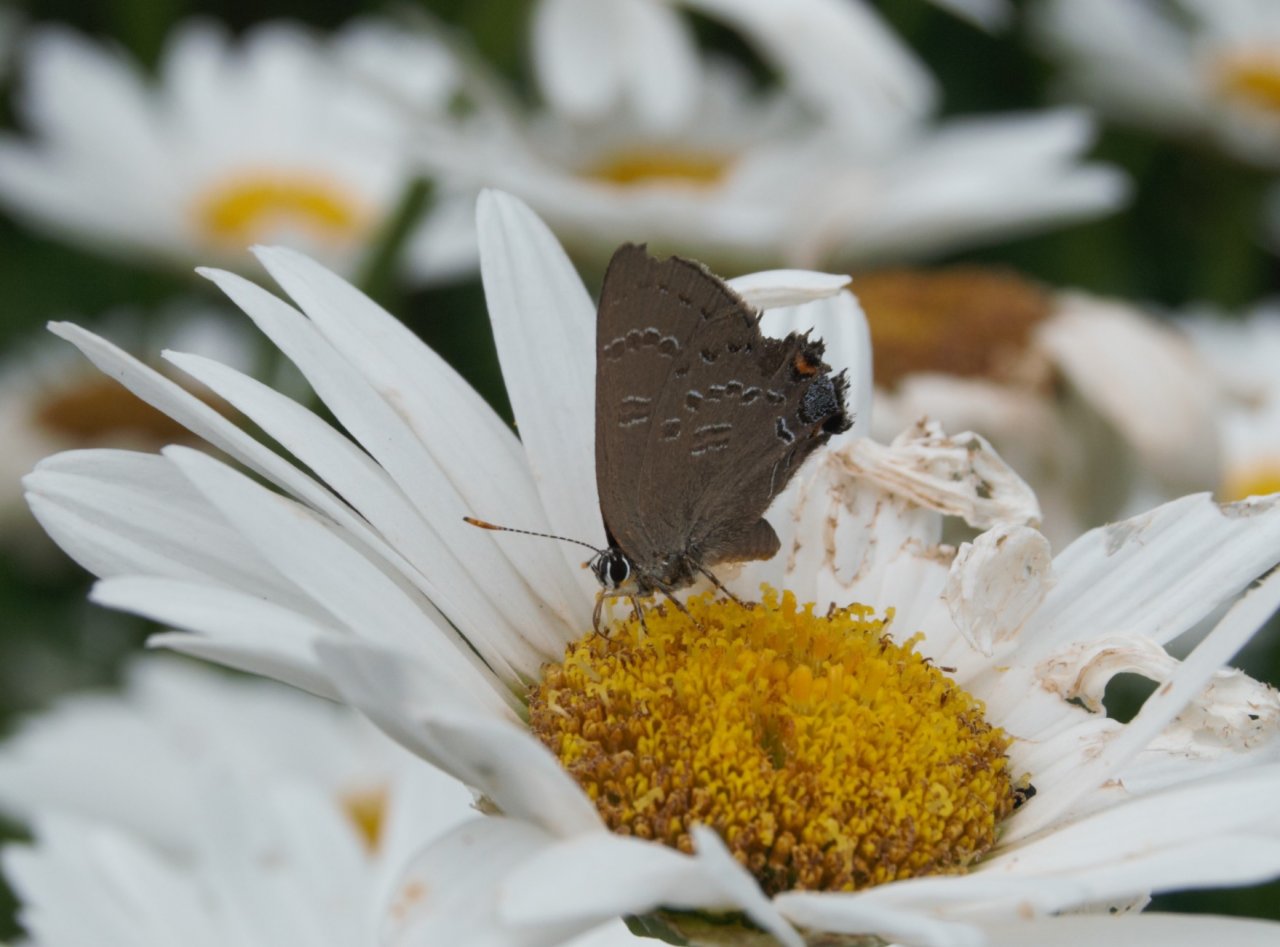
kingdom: Animalia
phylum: Arthropoda
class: Insecta
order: Lepidoptera
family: Lycaenidae
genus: Strymon
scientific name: Strymon caryaevorus
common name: Hickory Hairstreak
